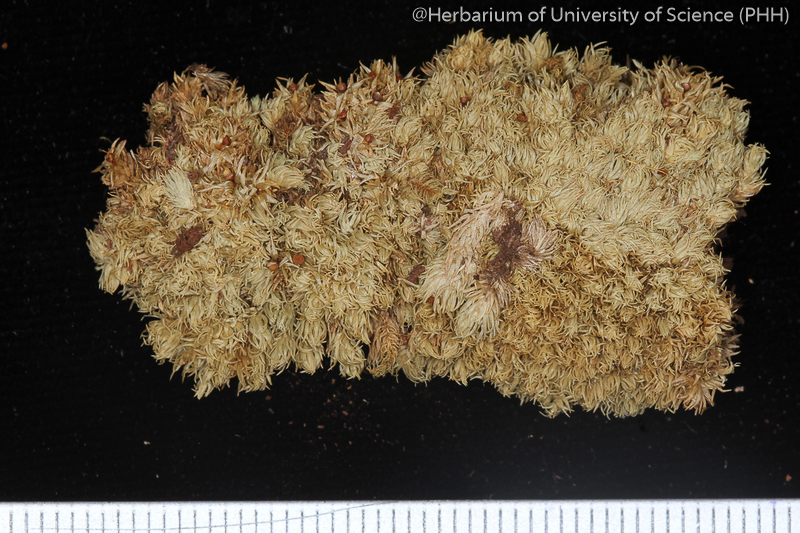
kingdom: Plantae
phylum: Bryophyta
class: Bryopsida
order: Dicranales
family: Leucobryaceae
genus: Ochrobryum
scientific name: Ochrobryum kurzianum
